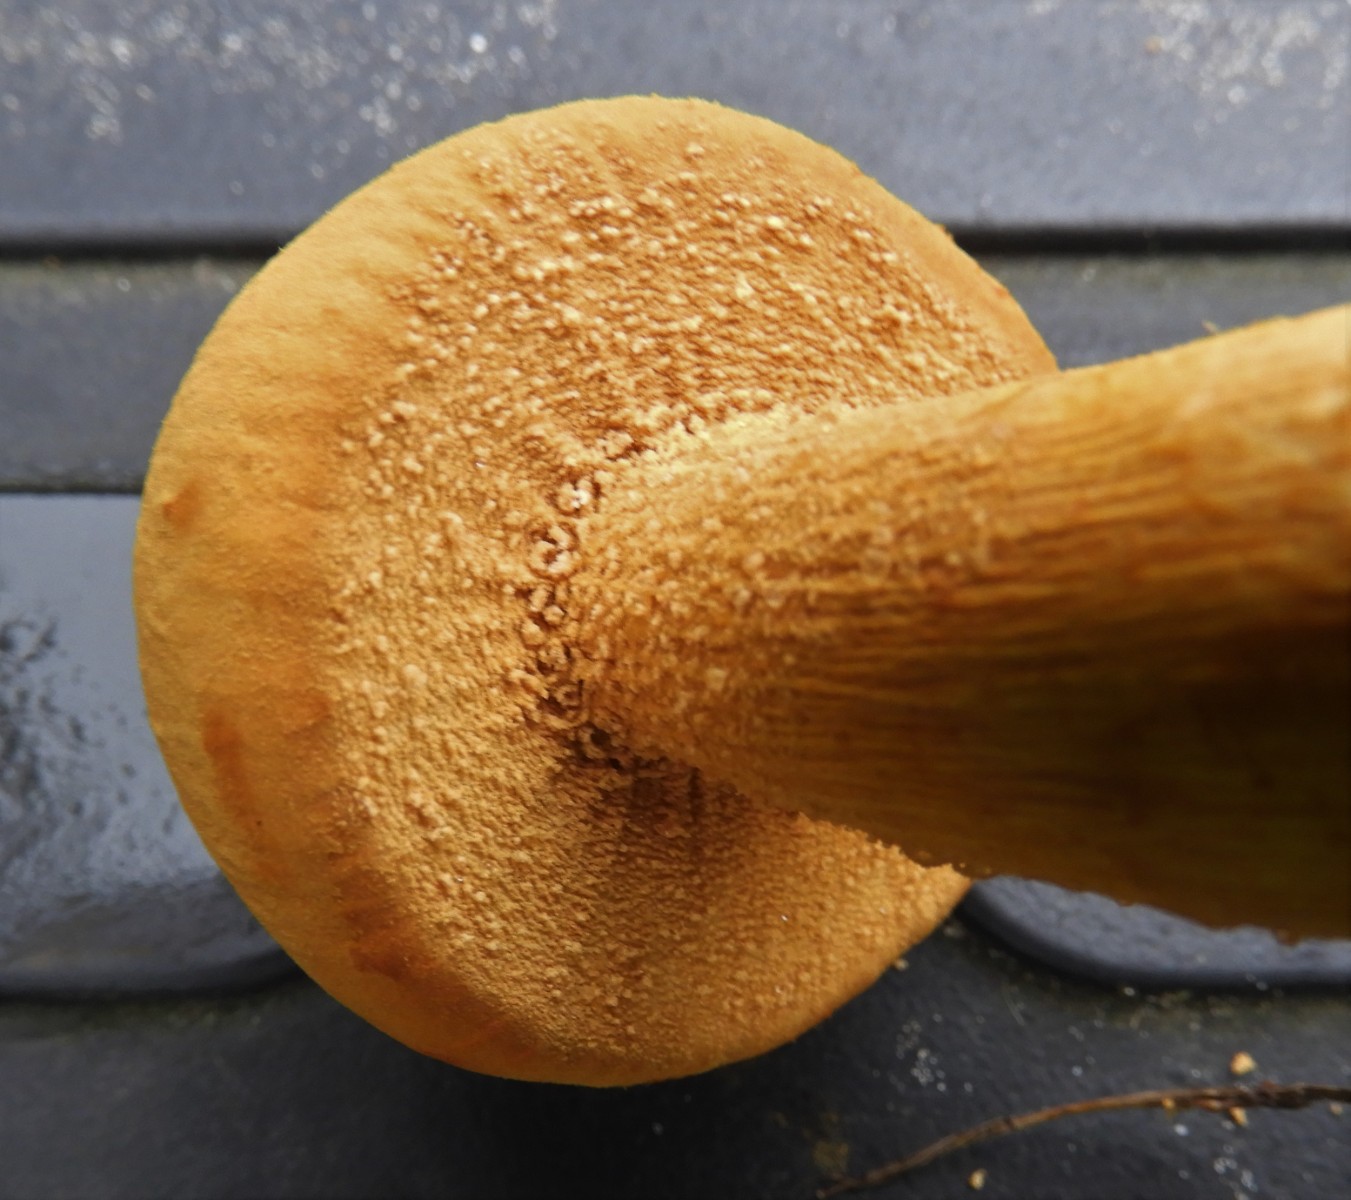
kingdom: Fungi
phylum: Basidiomycota
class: Agaricomycetes
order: Agaricales
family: Tricholomataceae
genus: Phaeolepiota
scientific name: Phaeolepiota aurea
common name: gyldenhat
